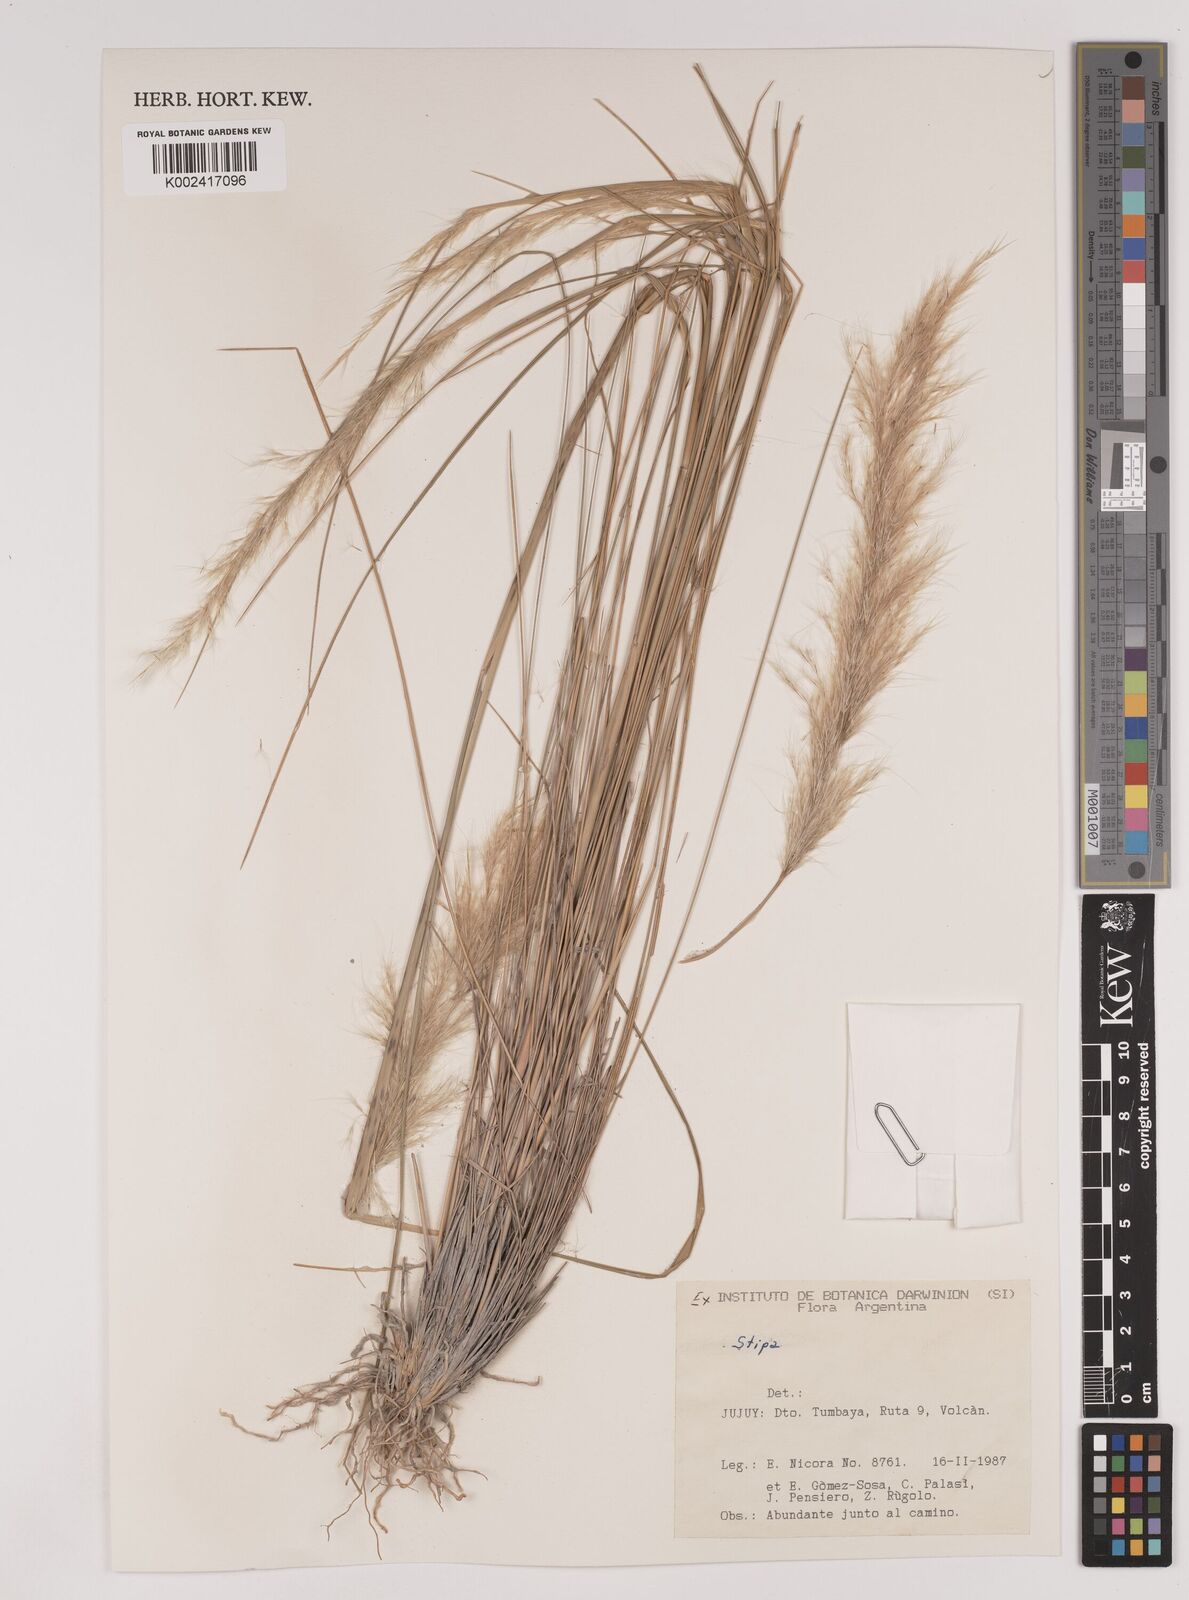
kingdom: Plantae
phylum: Tracheophyta
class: Liliopsida
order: Poales
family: Poaceae
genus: Stipa
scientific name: Stipa
